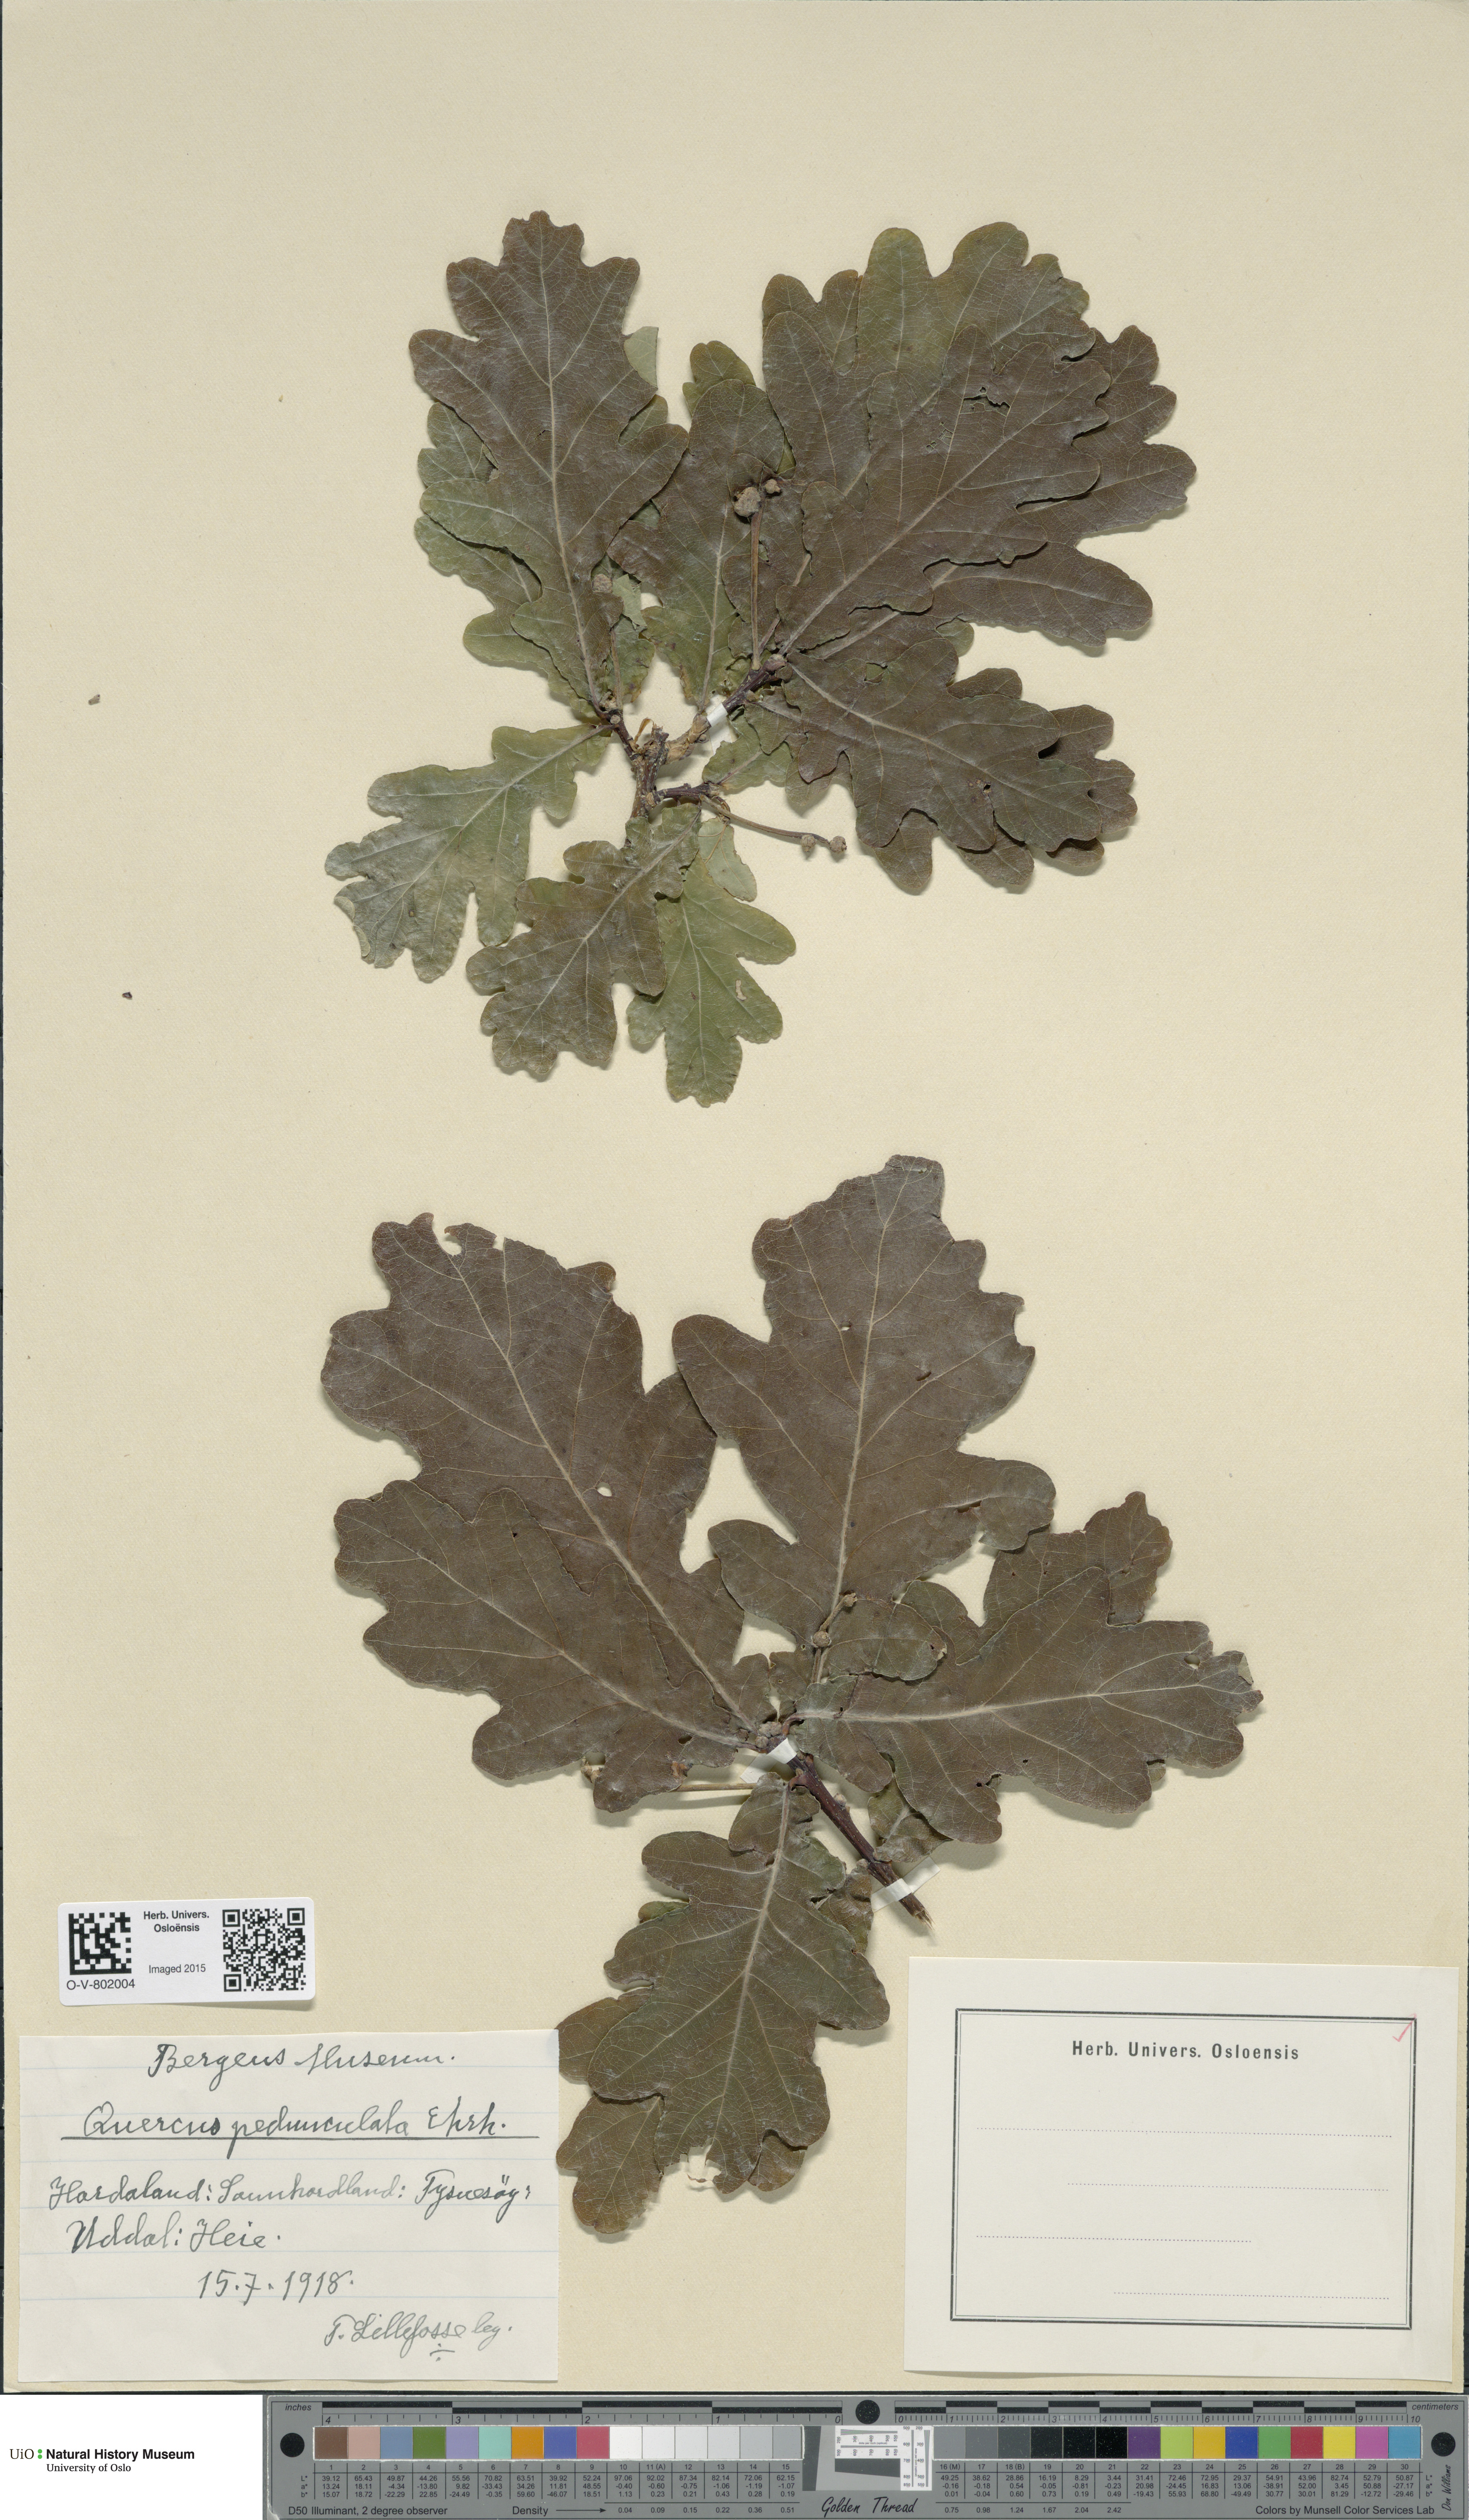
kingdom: Plantae
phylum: Tracheophyta
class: Magnoliopsida
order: Fagales
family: Fagaceae
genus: Quercus
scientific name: Quercus robur
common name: Pedunculate oak
